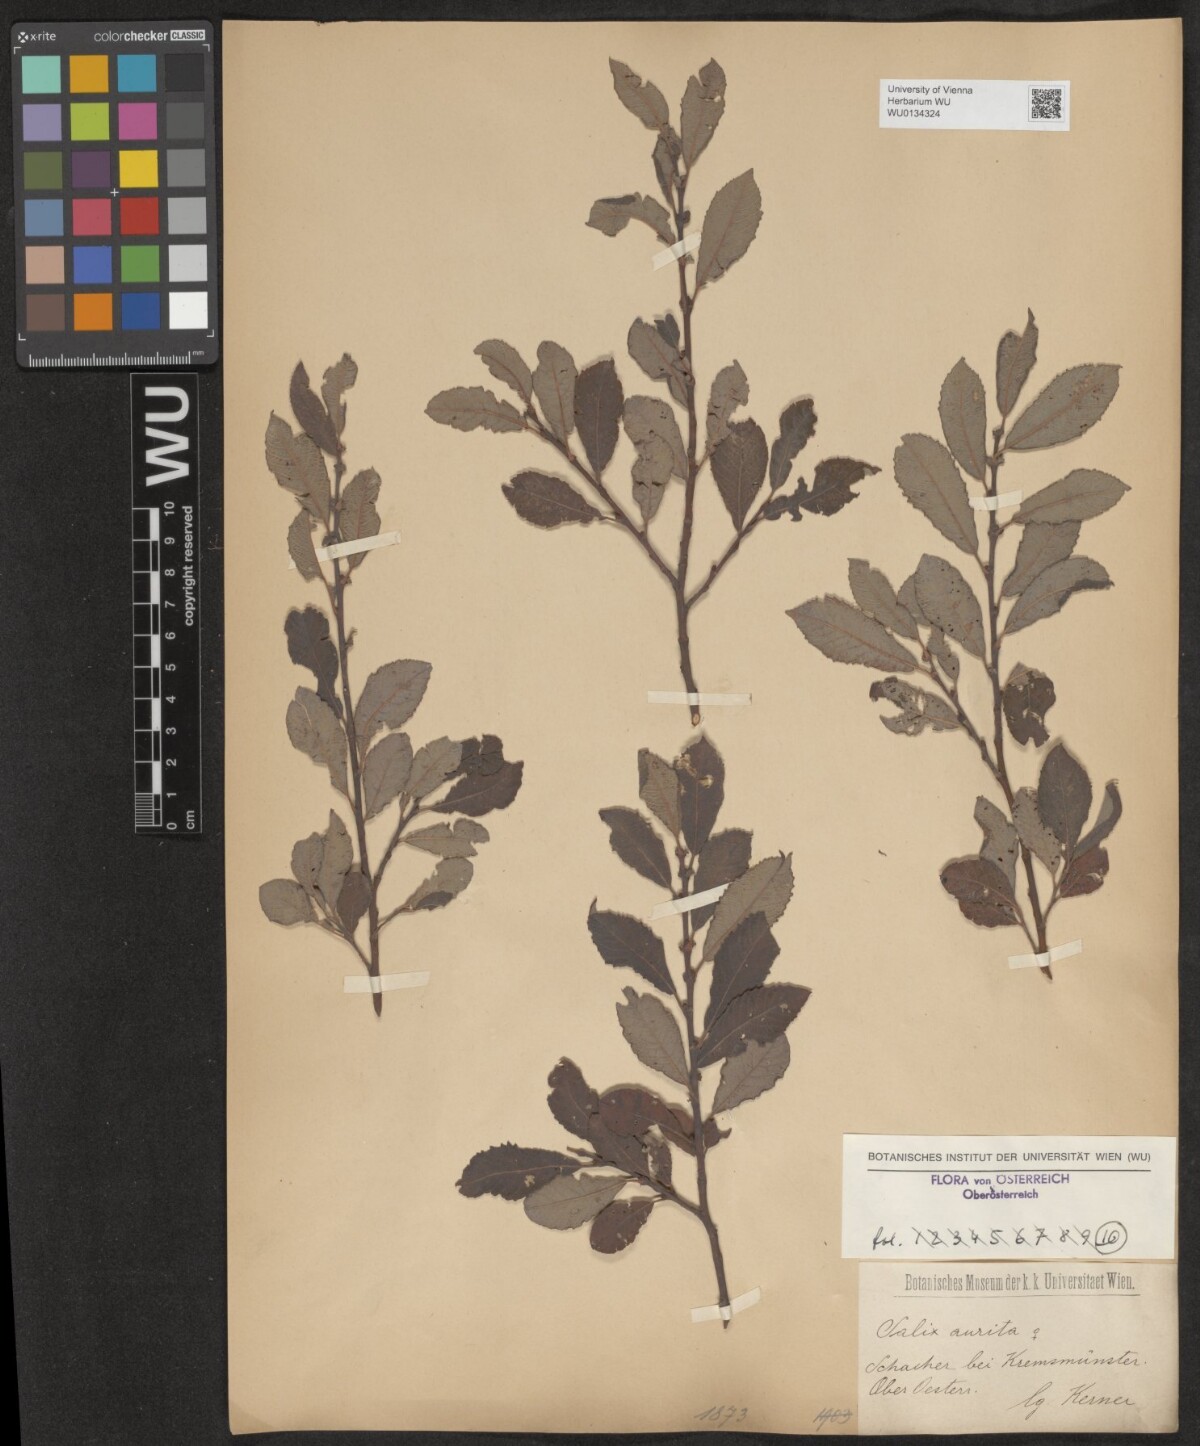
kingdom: Plantae
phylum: Tracheophyta
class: Magnoliopsida
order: Malpighiales
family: Salicaceae
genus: Salix
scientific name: Salix aurita
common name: Eared willow
